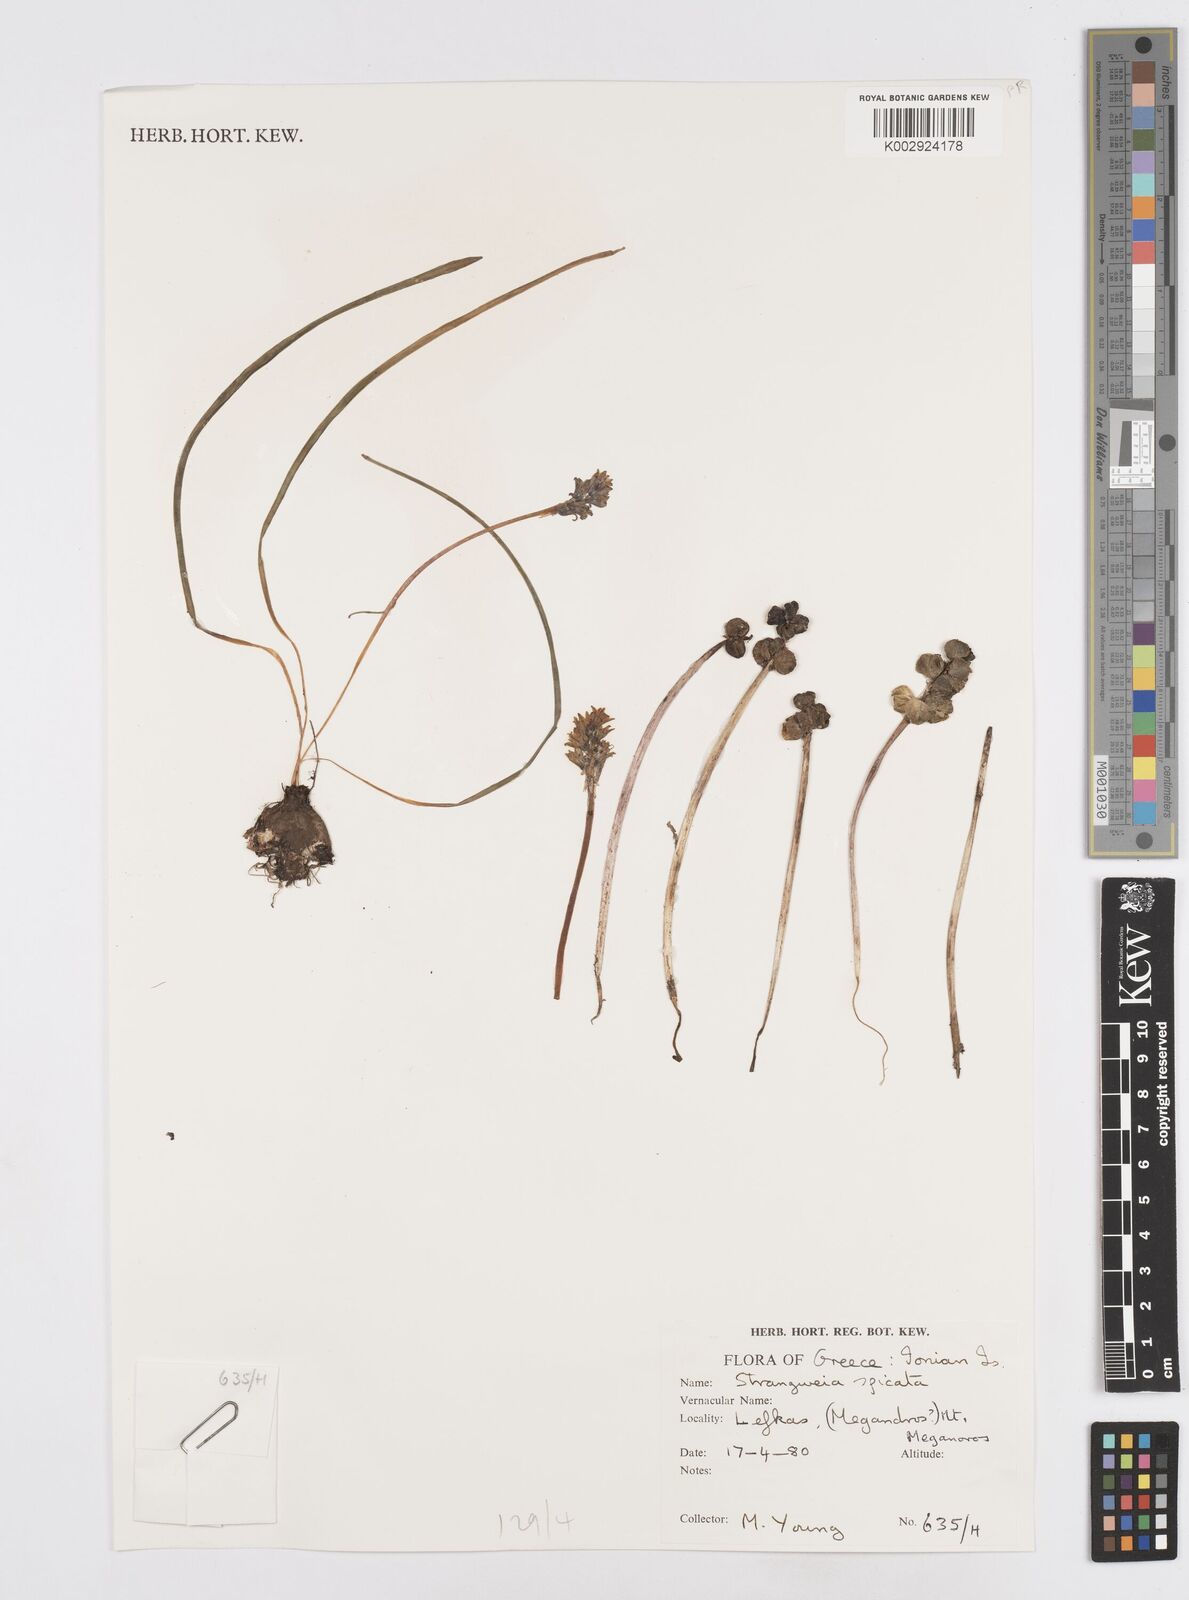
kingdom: Plantae
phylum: Tracheophyta
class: Liliopsida
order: Asparagales
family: Asparagaceae
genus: Bellevalia
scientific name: Bellevalia hyacinthoides
